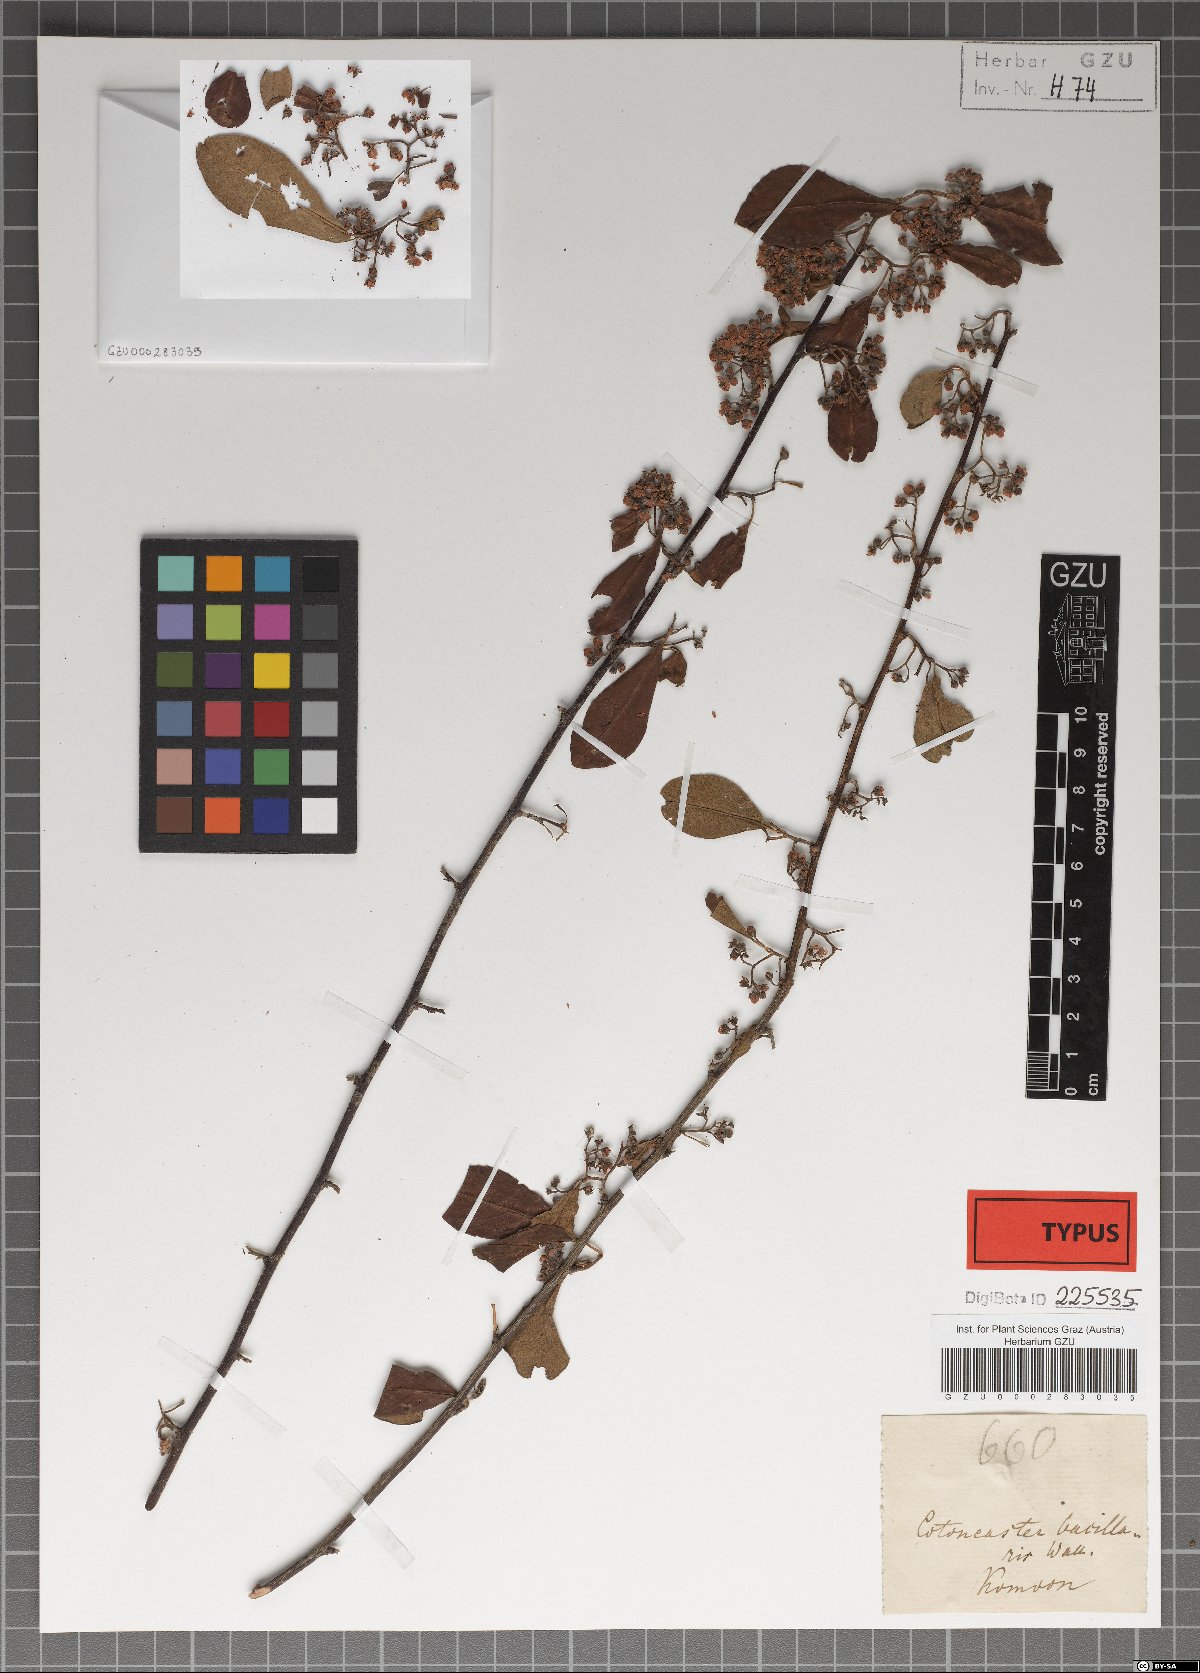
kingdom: Plantae
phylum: Tracheophyta
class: Magnoliopsida
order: Rosales
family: Rosaceae
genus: Cotoneaster
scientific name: Cotoneaster affinis
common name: Purpleberry cotoneaster
